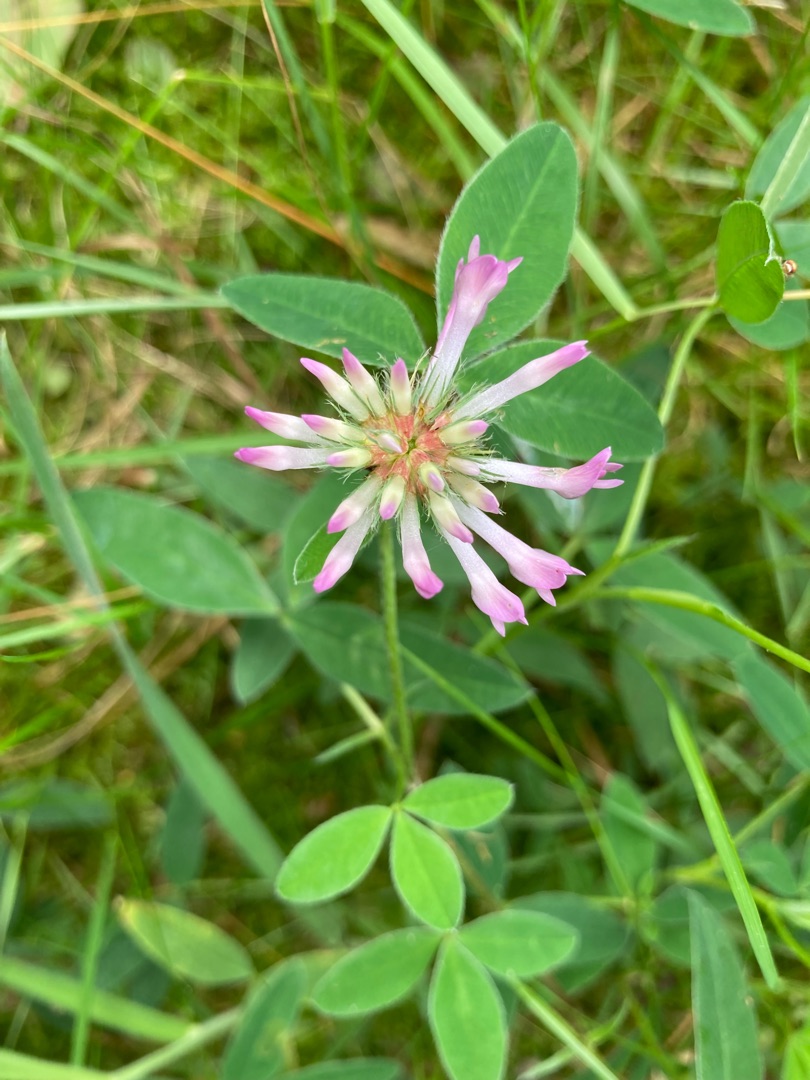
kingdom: Plantae
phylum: Tracheophyta
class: Magnoliopsida
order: Fabales
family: Fabaceae
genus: Trifolium
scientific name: Trifolium medium
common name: Bugtet kløver
